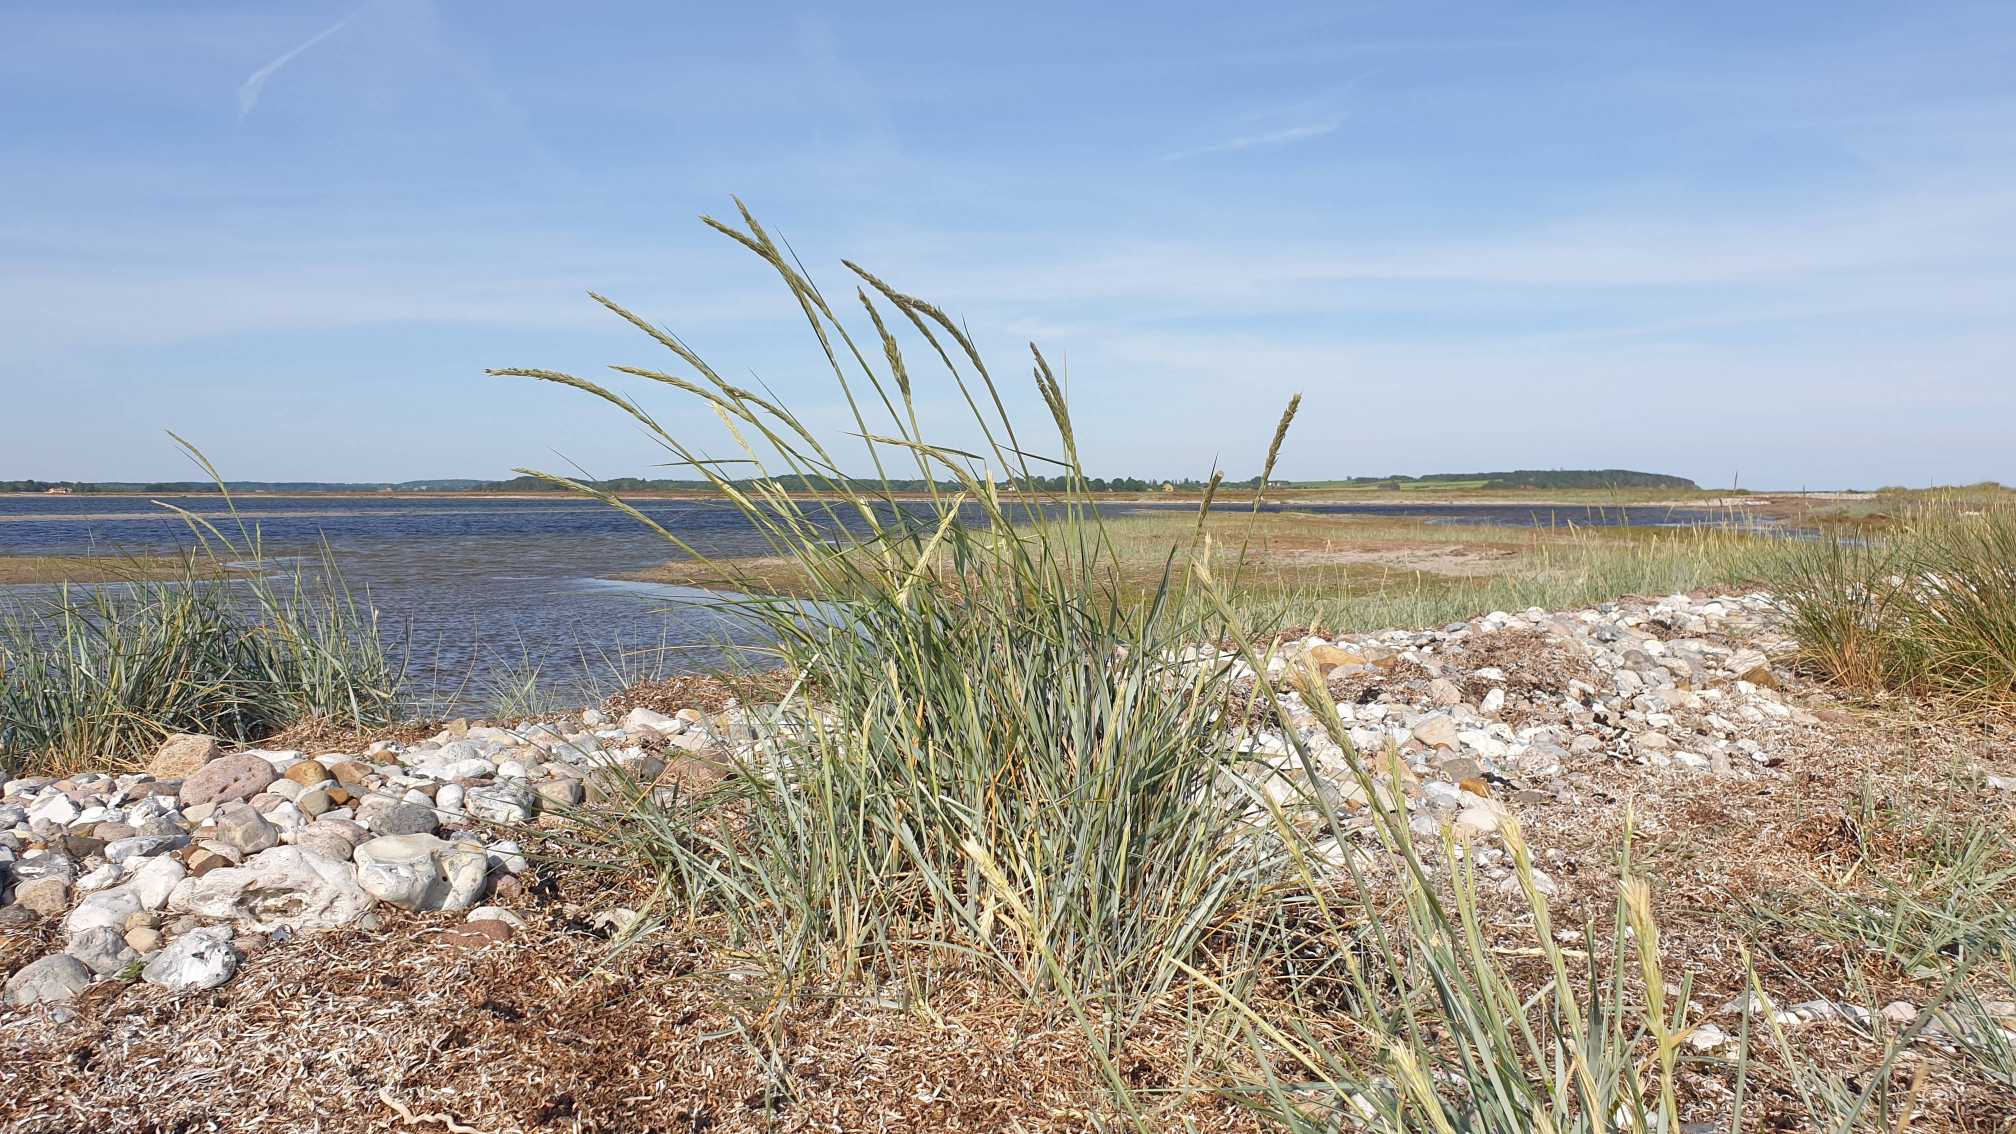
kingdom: Plantae
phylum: Tracheophyta
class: Liliopsida
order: Poales
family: Poaceae
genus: Leymus
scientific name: Leymus arenarius
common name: Marehalm
